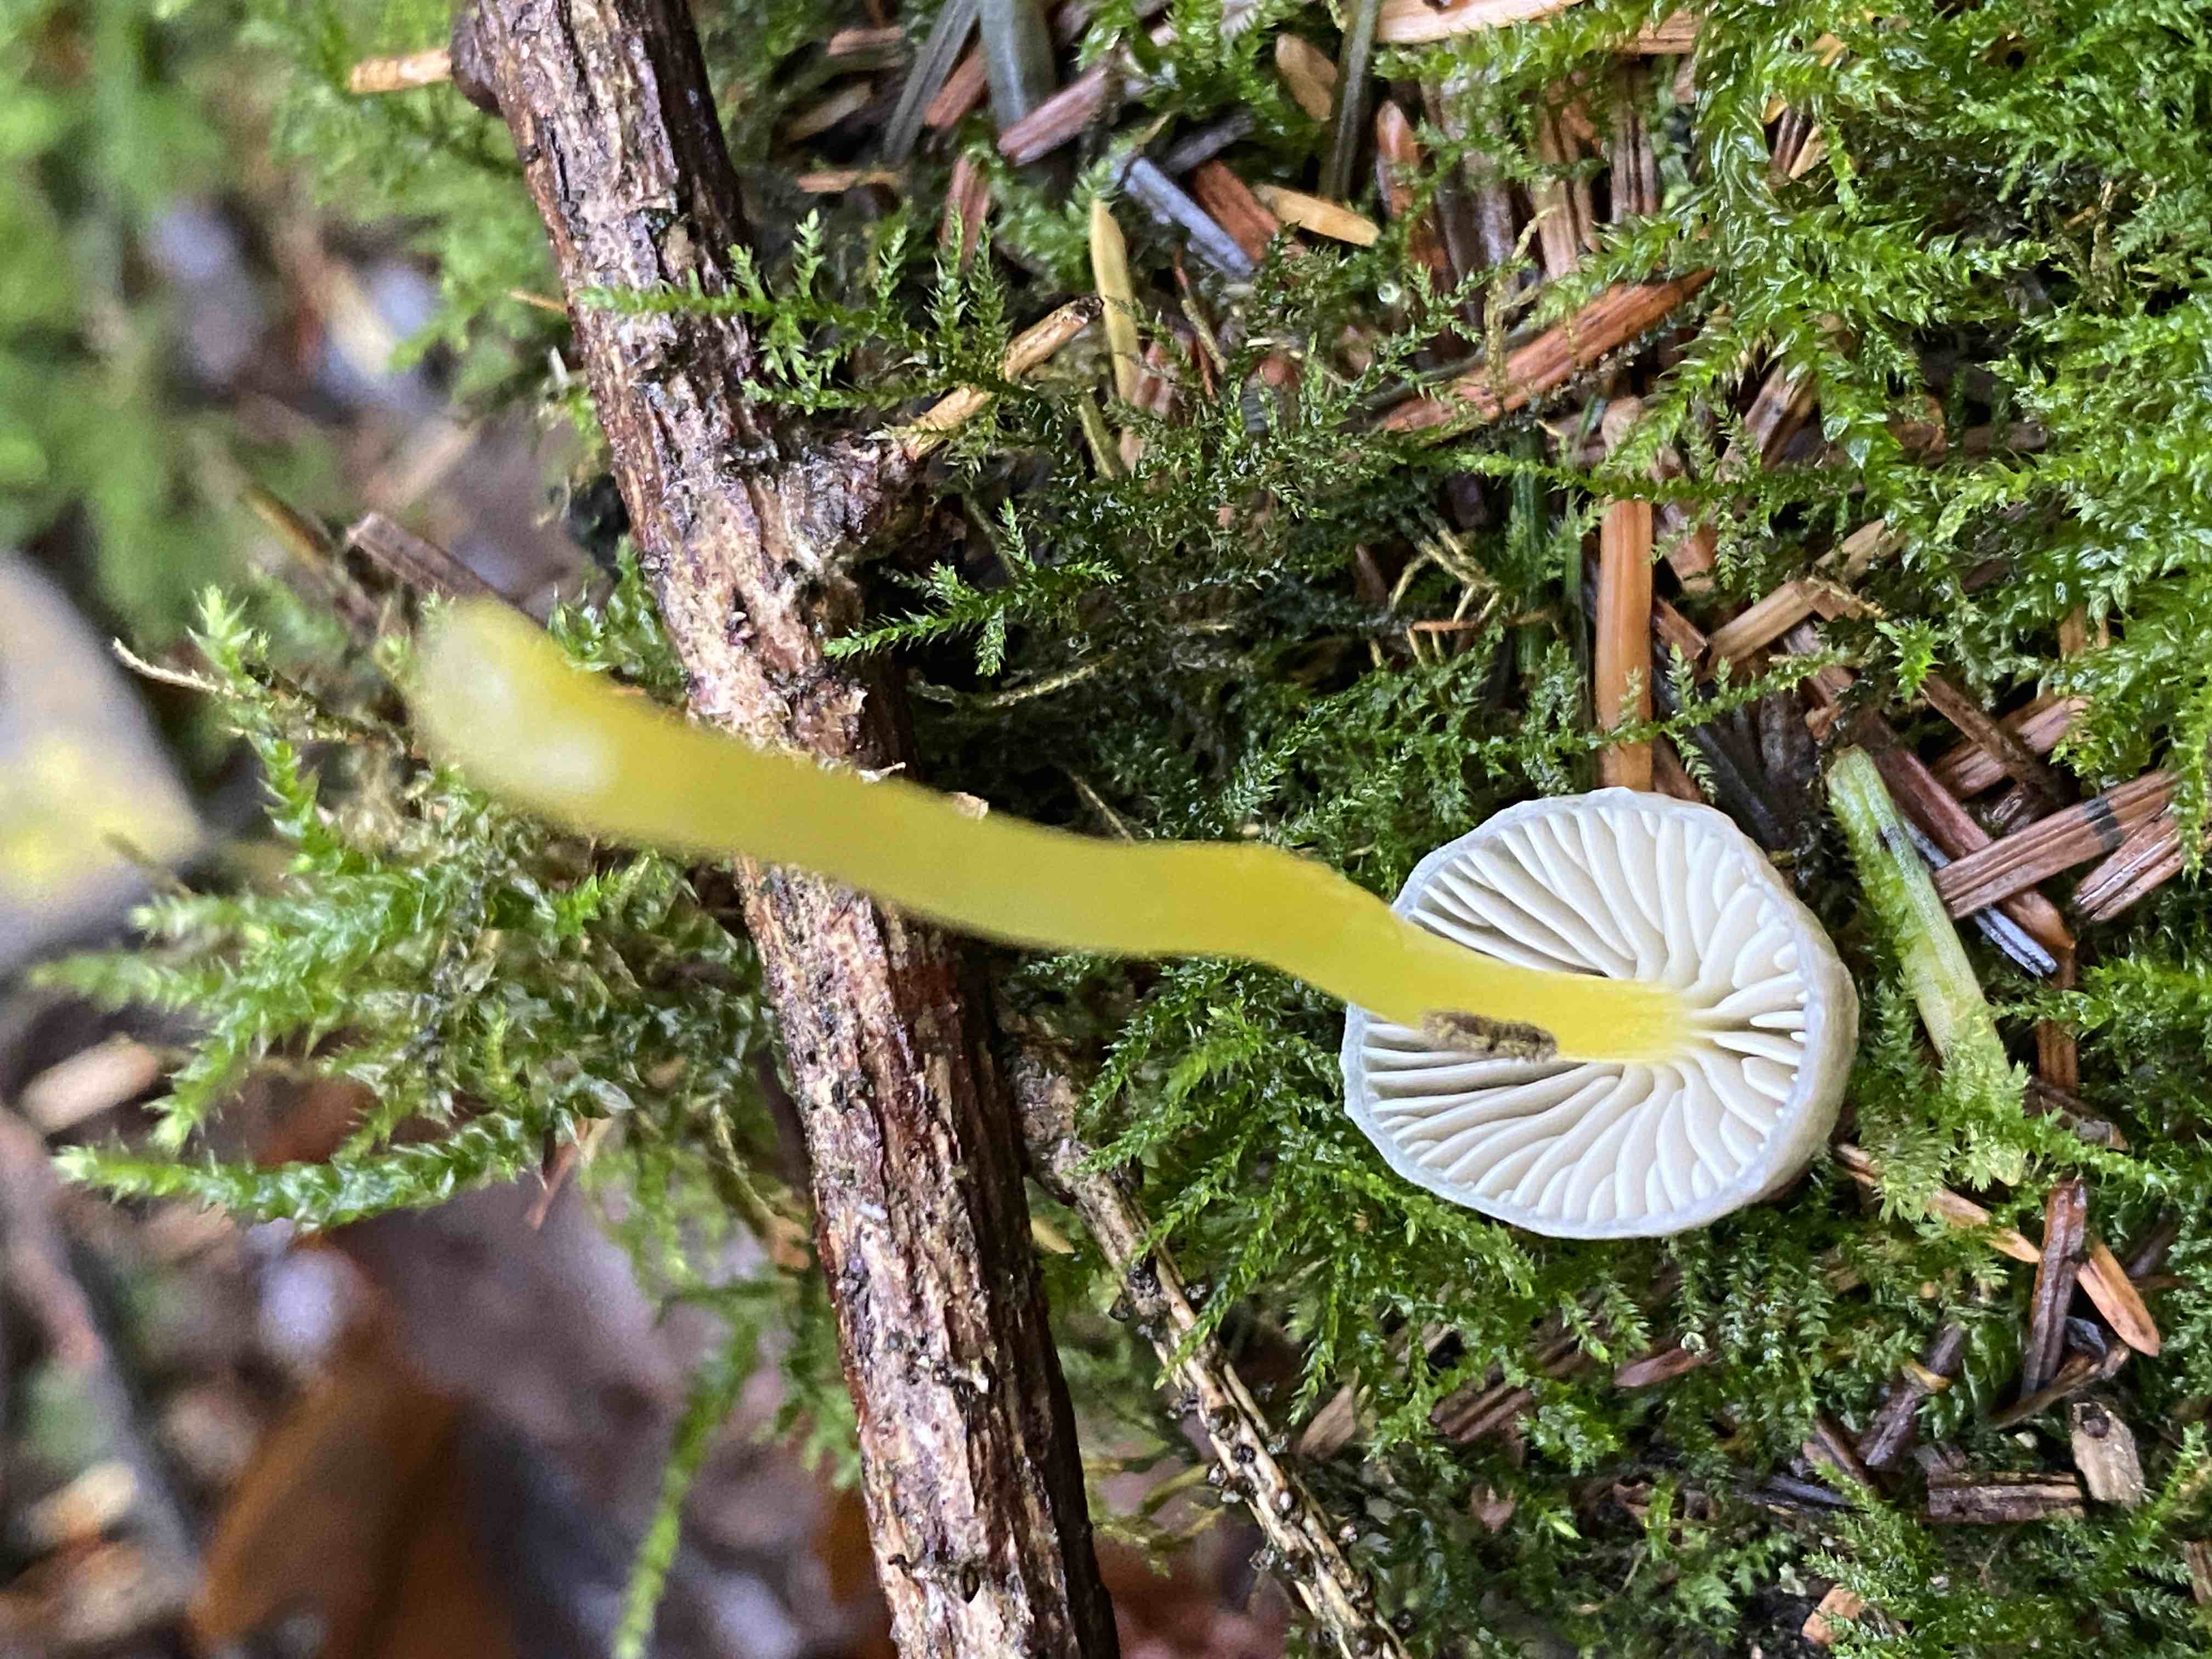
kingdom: Fungi
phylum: Basidiomycota
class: Agaricomycetes
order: Agaricales
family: Mycenaceae
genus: Mycena
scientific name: Mycena epipterygia
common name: gulstokket huesvamp
